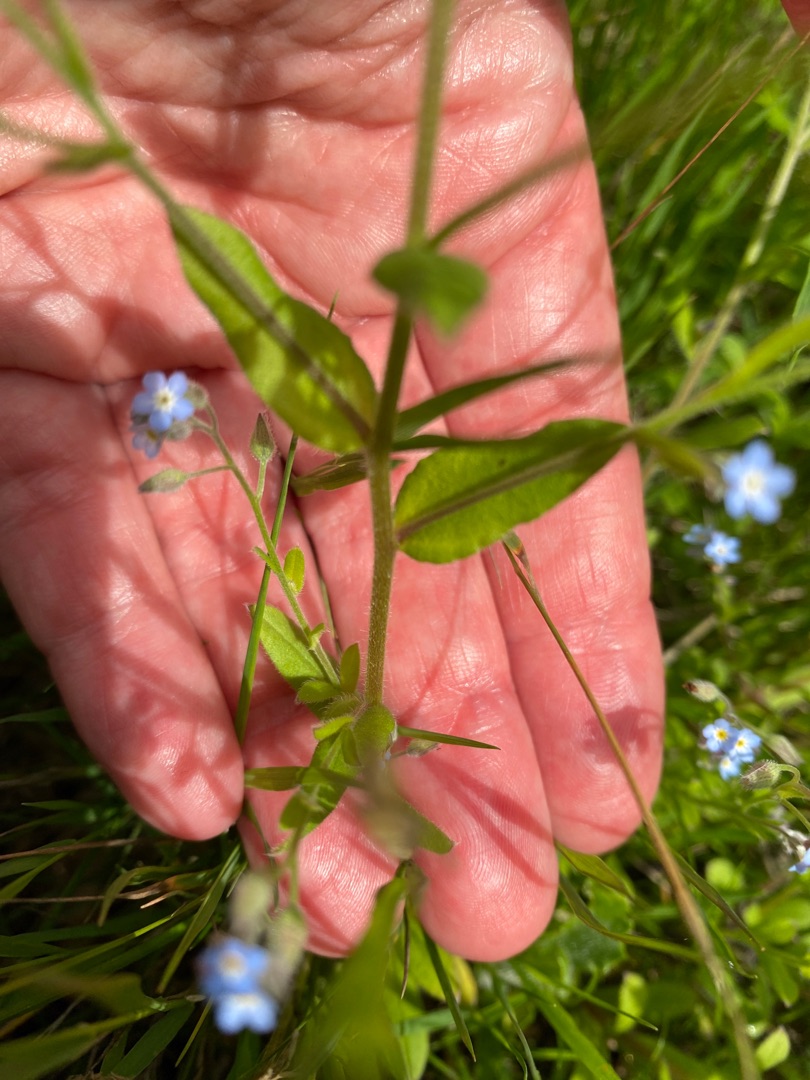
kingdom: Plantae
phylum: Tracheophyta
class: Magnoliopsida
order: Boraginales
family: Boraginaceae
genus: Myosotis
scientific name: Myosotis arvensis
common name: Mark-forglemmigej
